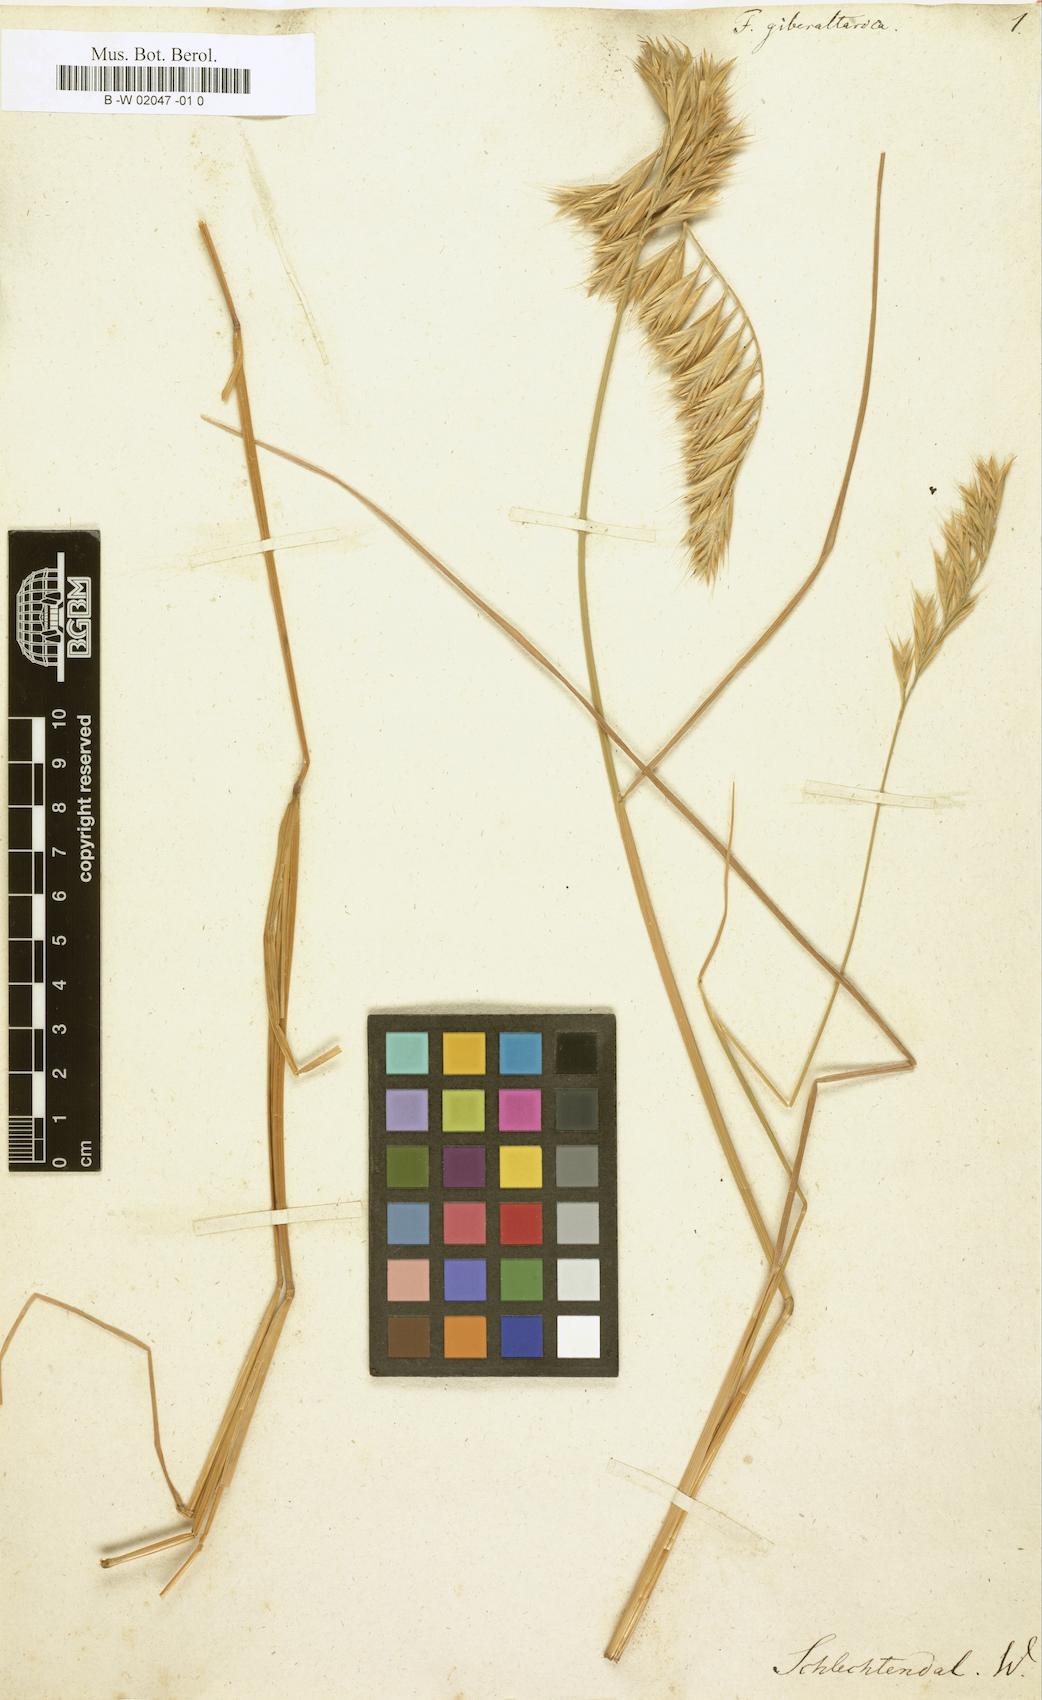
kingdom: Plantae
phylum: Tracheophyta
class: Liliopsida
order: Poales
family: Poaceae
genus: Festuca
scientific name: Festuca alopecuros
